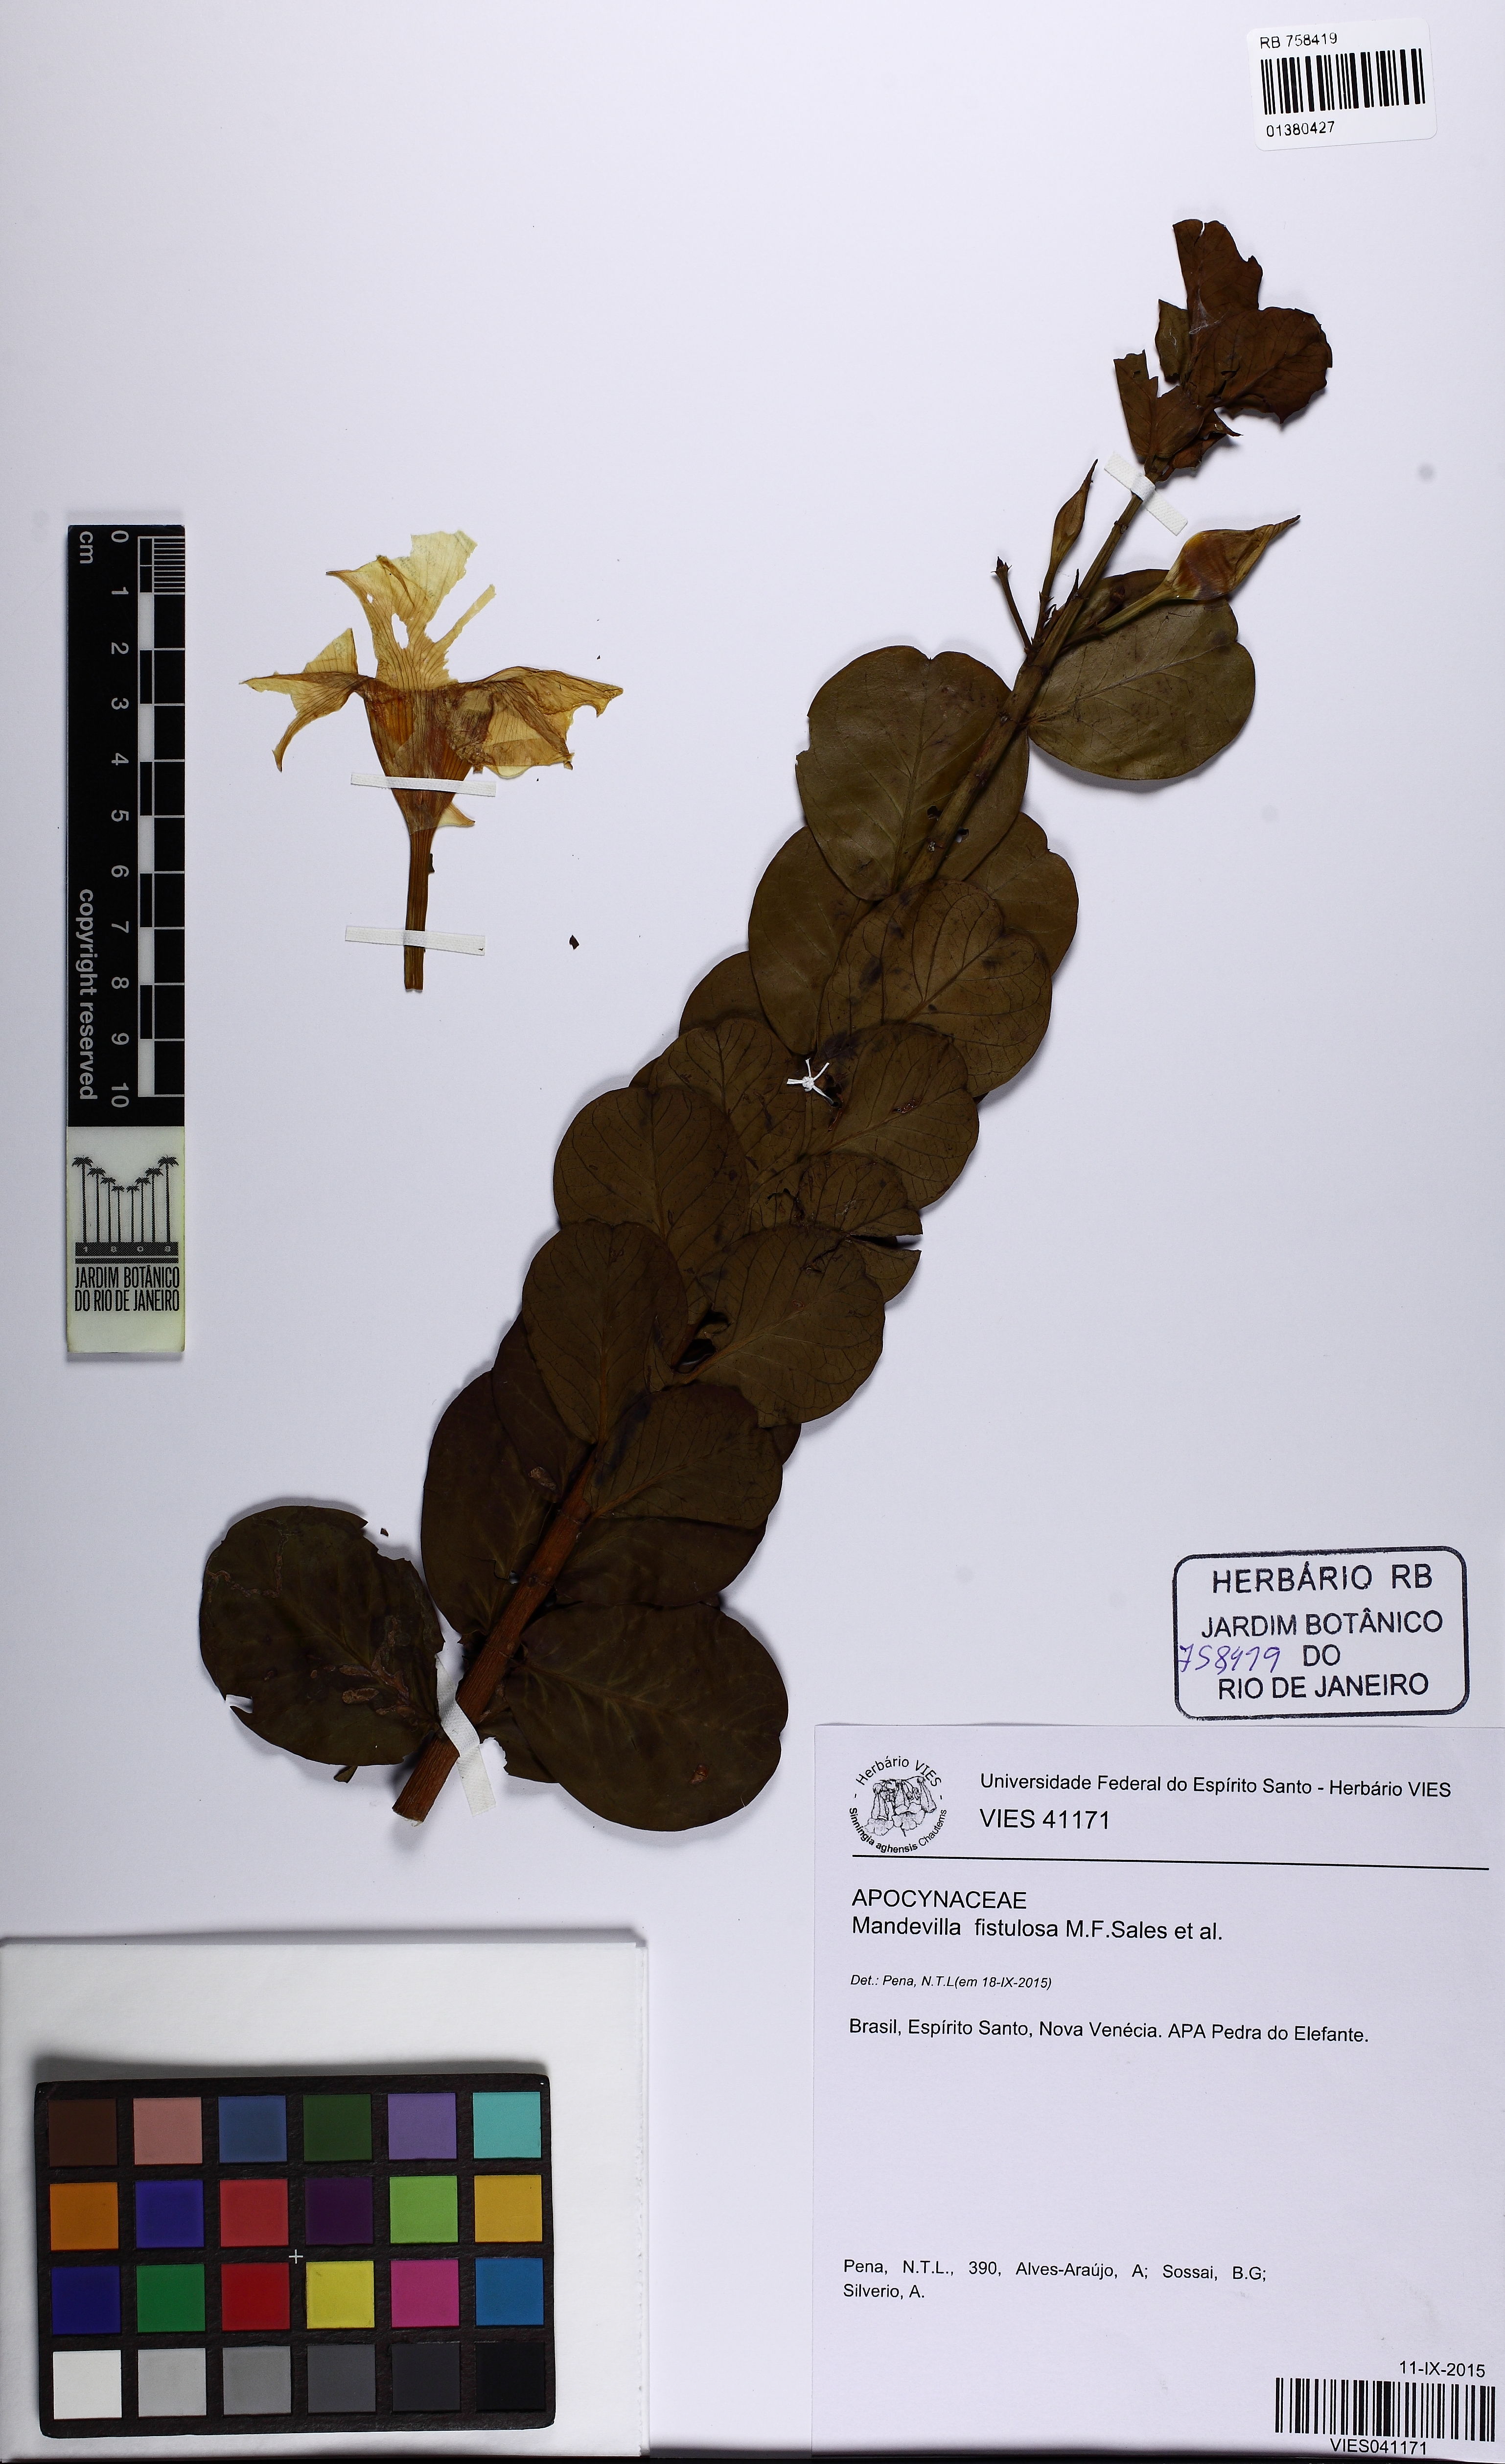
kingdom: Plantae
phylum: Tracheophyta
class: Magnoliopsida
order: Gentianales
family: Apocynaceae
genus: Mandevilla
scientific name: Mandevilla fistulosa
